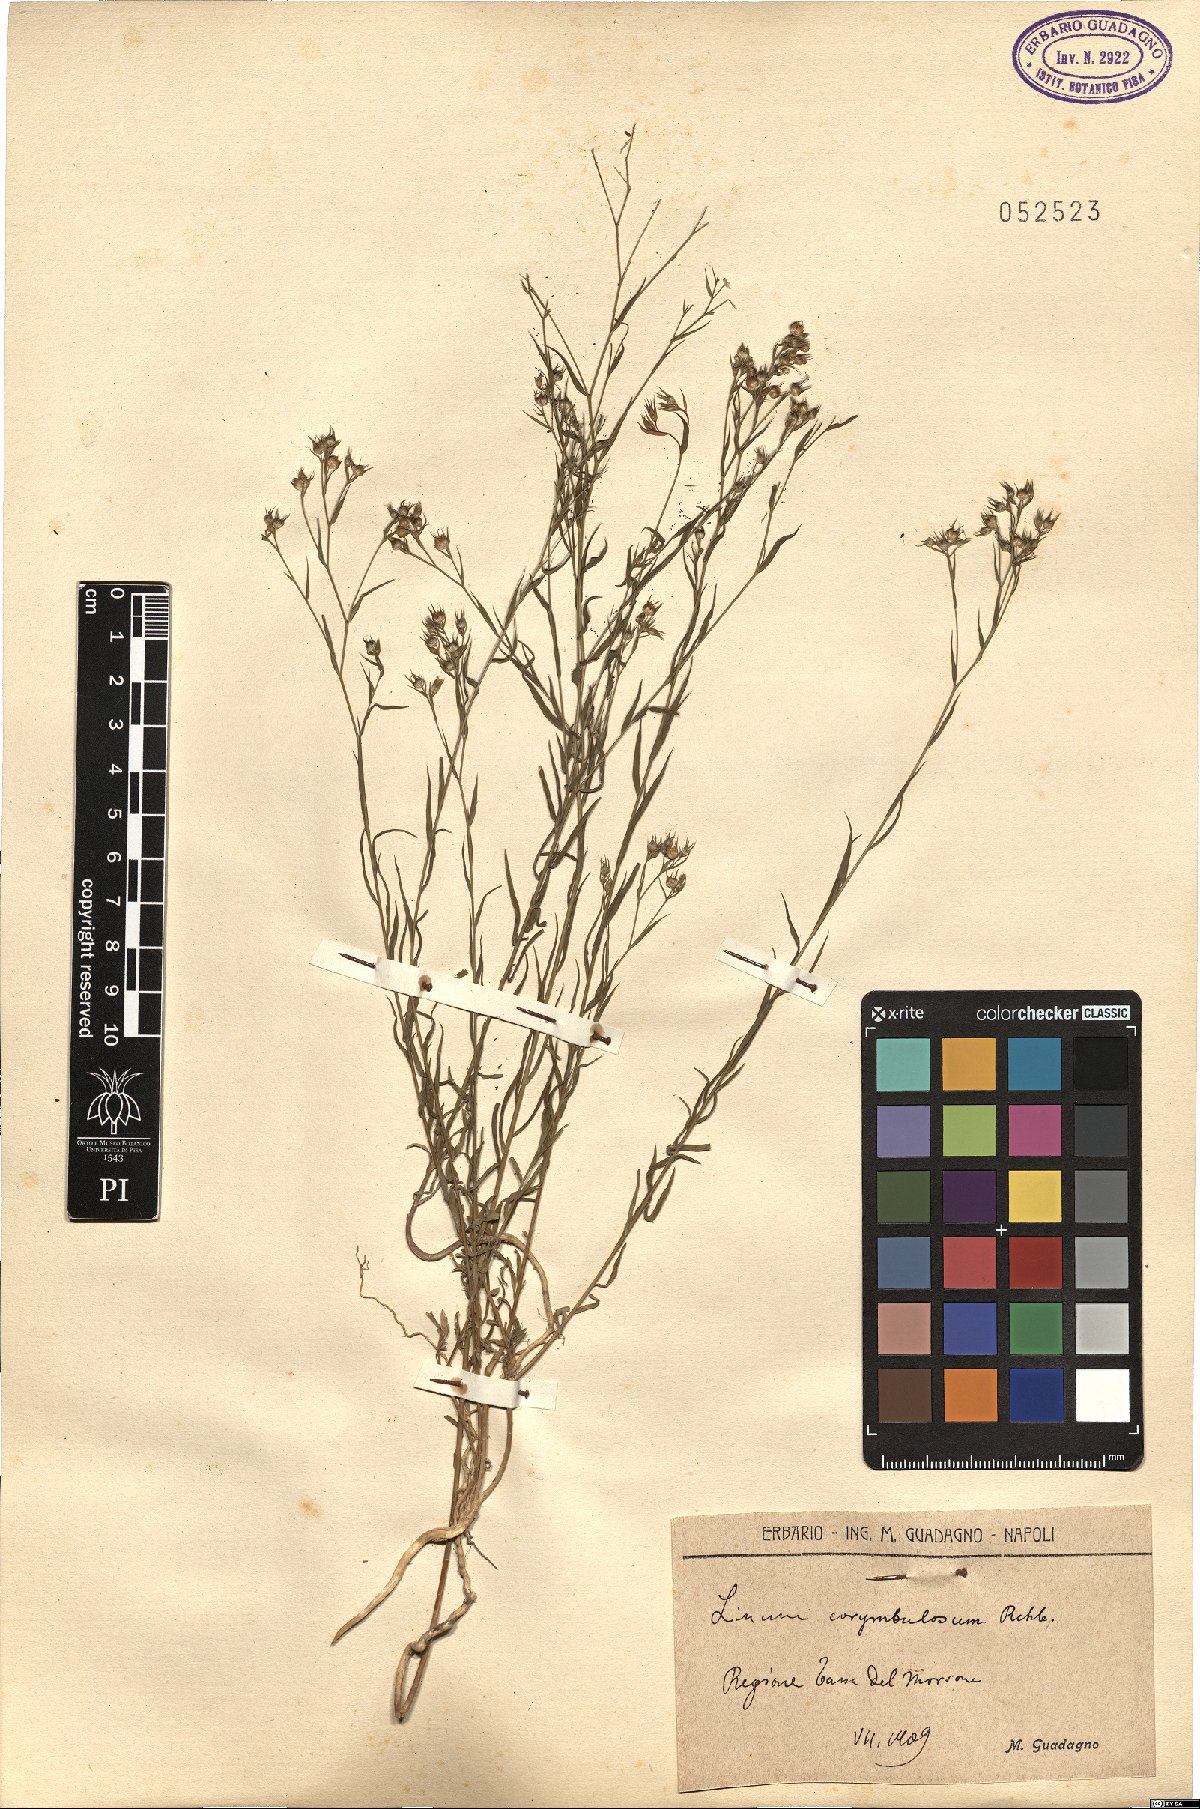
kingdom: Plantae
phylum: Tracheophyta
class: Magnoliopsida
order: Malpighiales
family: Linaceae
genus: Linum
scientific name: Linum corymbulosum
